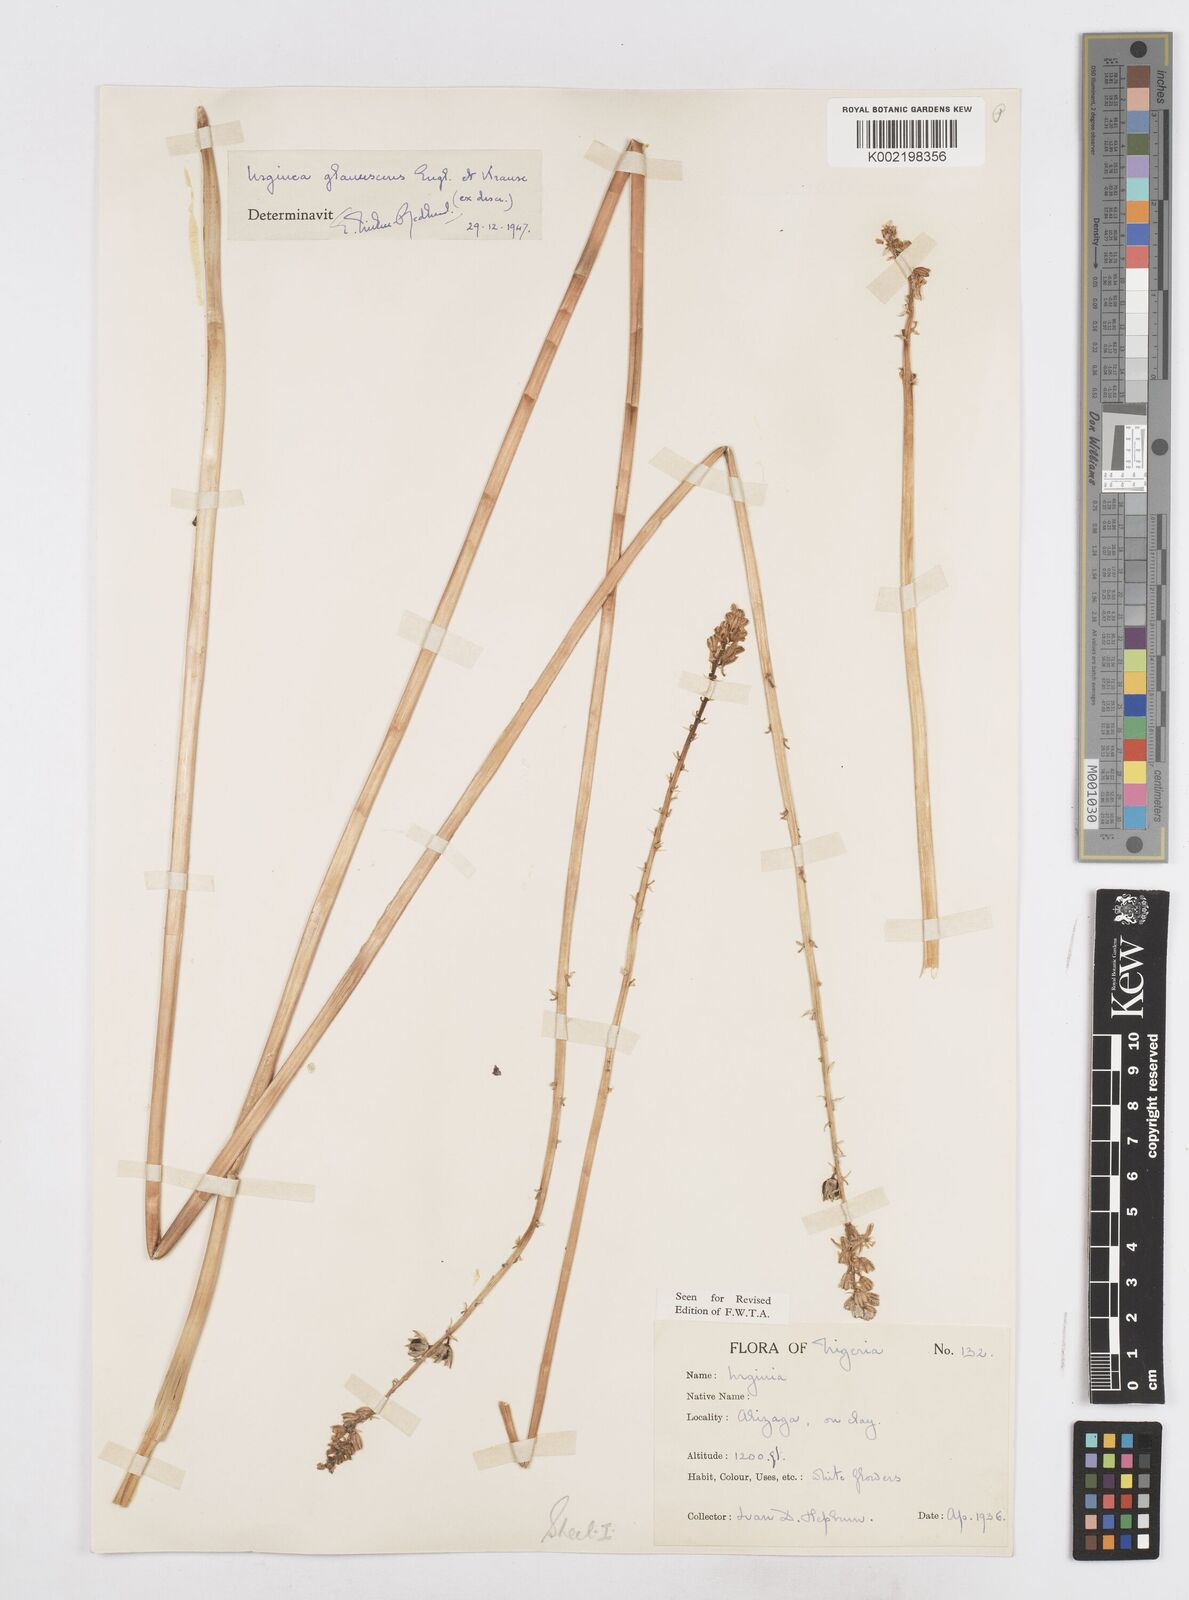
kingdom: Plantae
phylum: Tracheophyta
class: Liliopsida
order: Asparagales
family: Asparagaceae
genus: Ledebouria
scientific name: Ledebouria ensifolia
